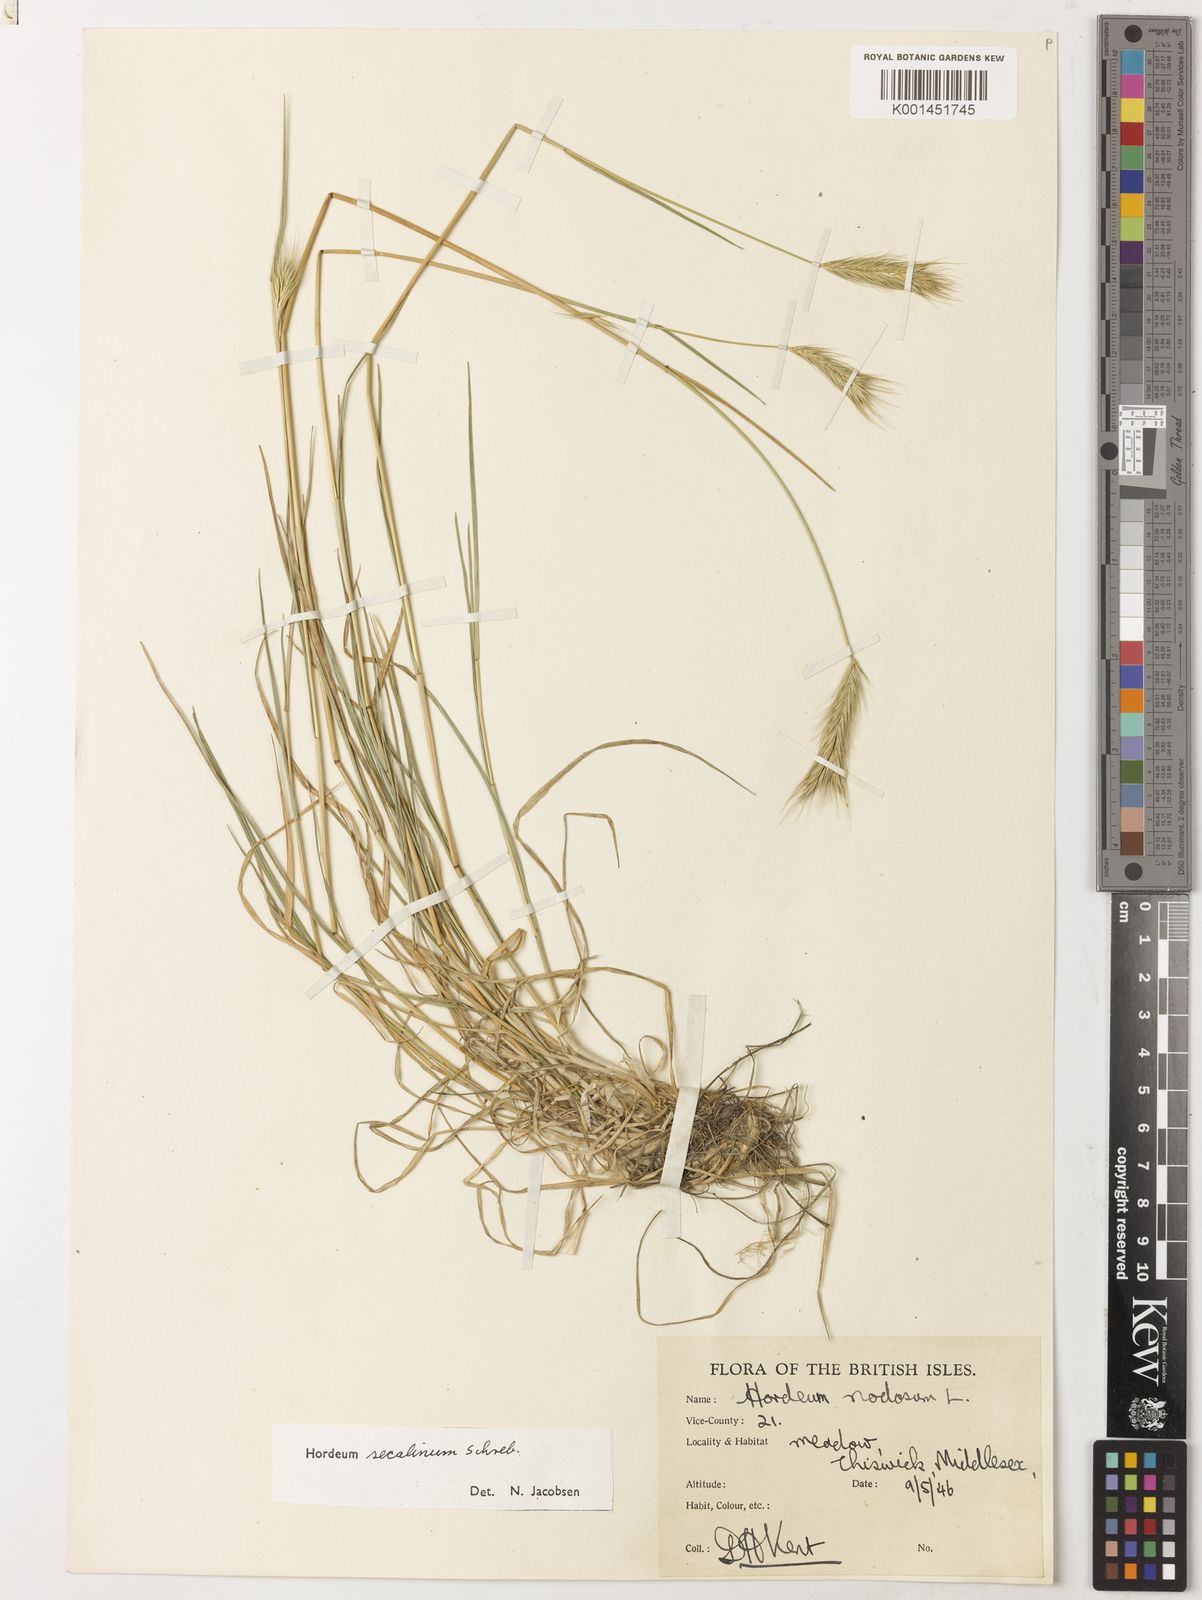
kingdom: Plantae
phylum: Tracheophyta
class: Liliopsida
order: Poales
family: Poaceae
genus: Hordeum
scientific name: Hordeum secalinum
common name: Meadow barley
